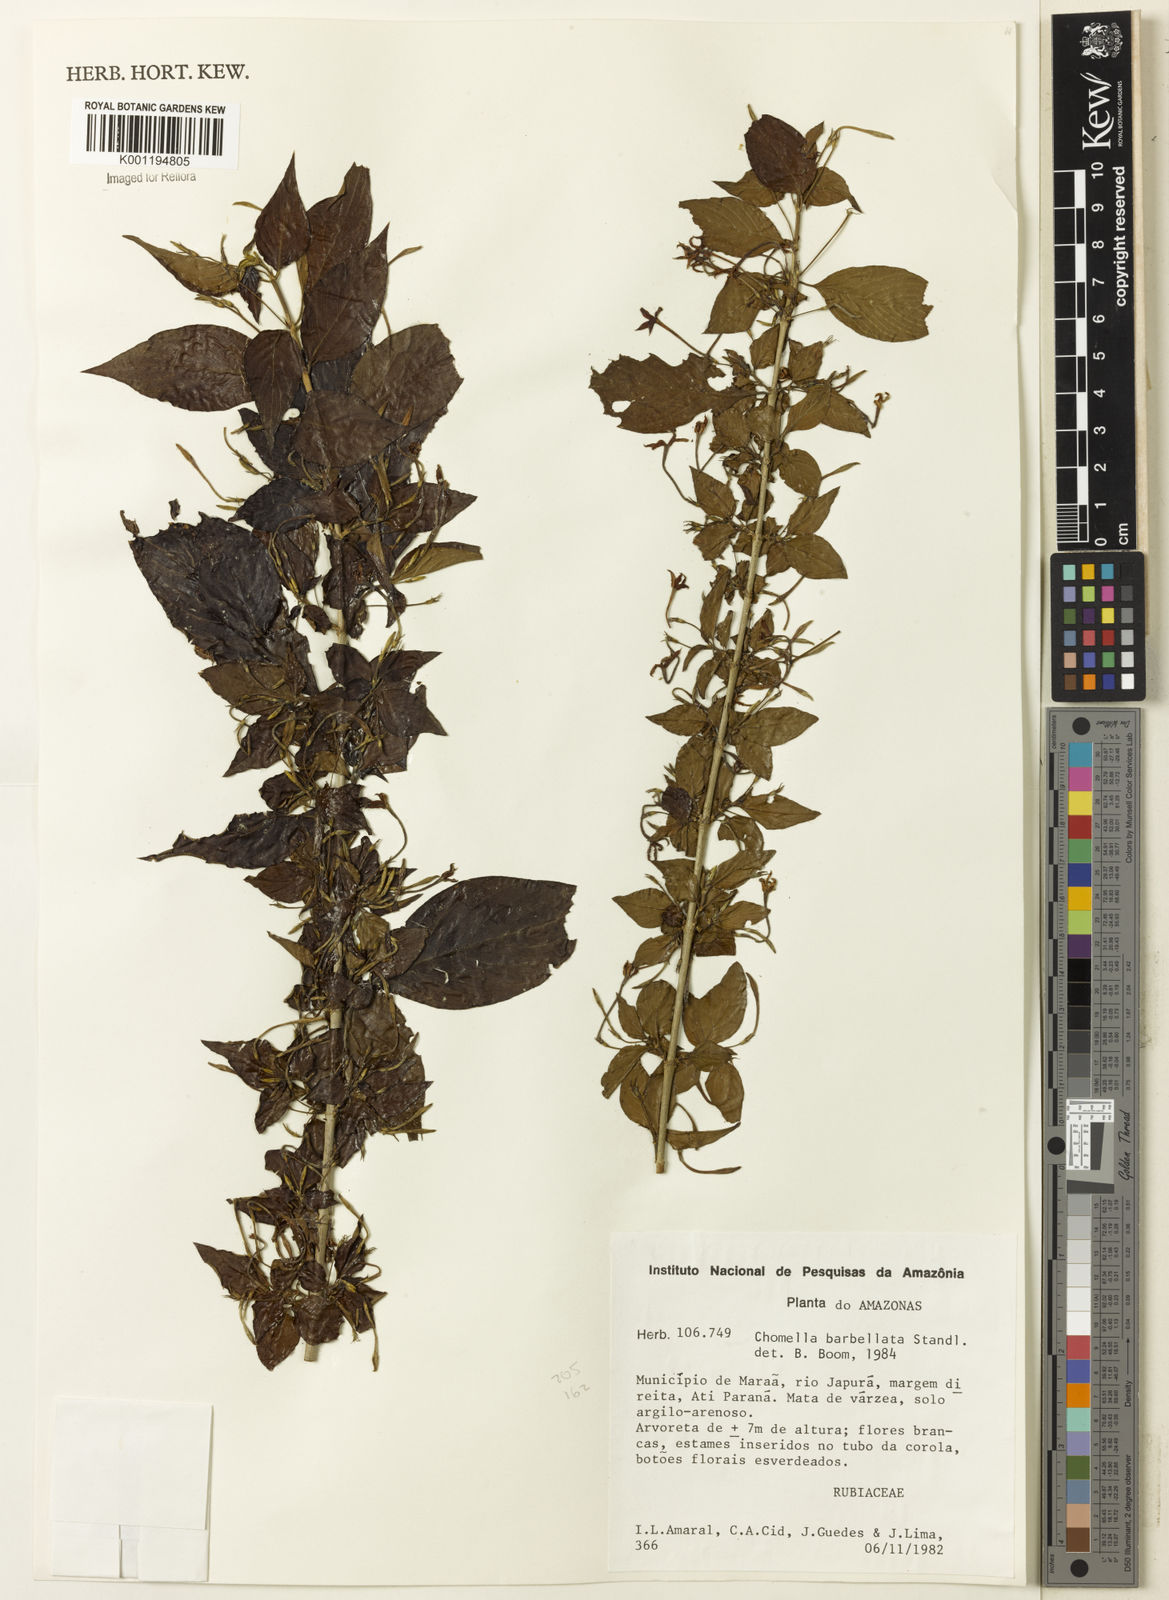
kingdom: Plantae
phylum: Tracheophyta
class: Magnoliopsida
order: Gentianales
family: Rubiaceae
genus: Chomelia
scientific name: Chomelia tenuiflora
